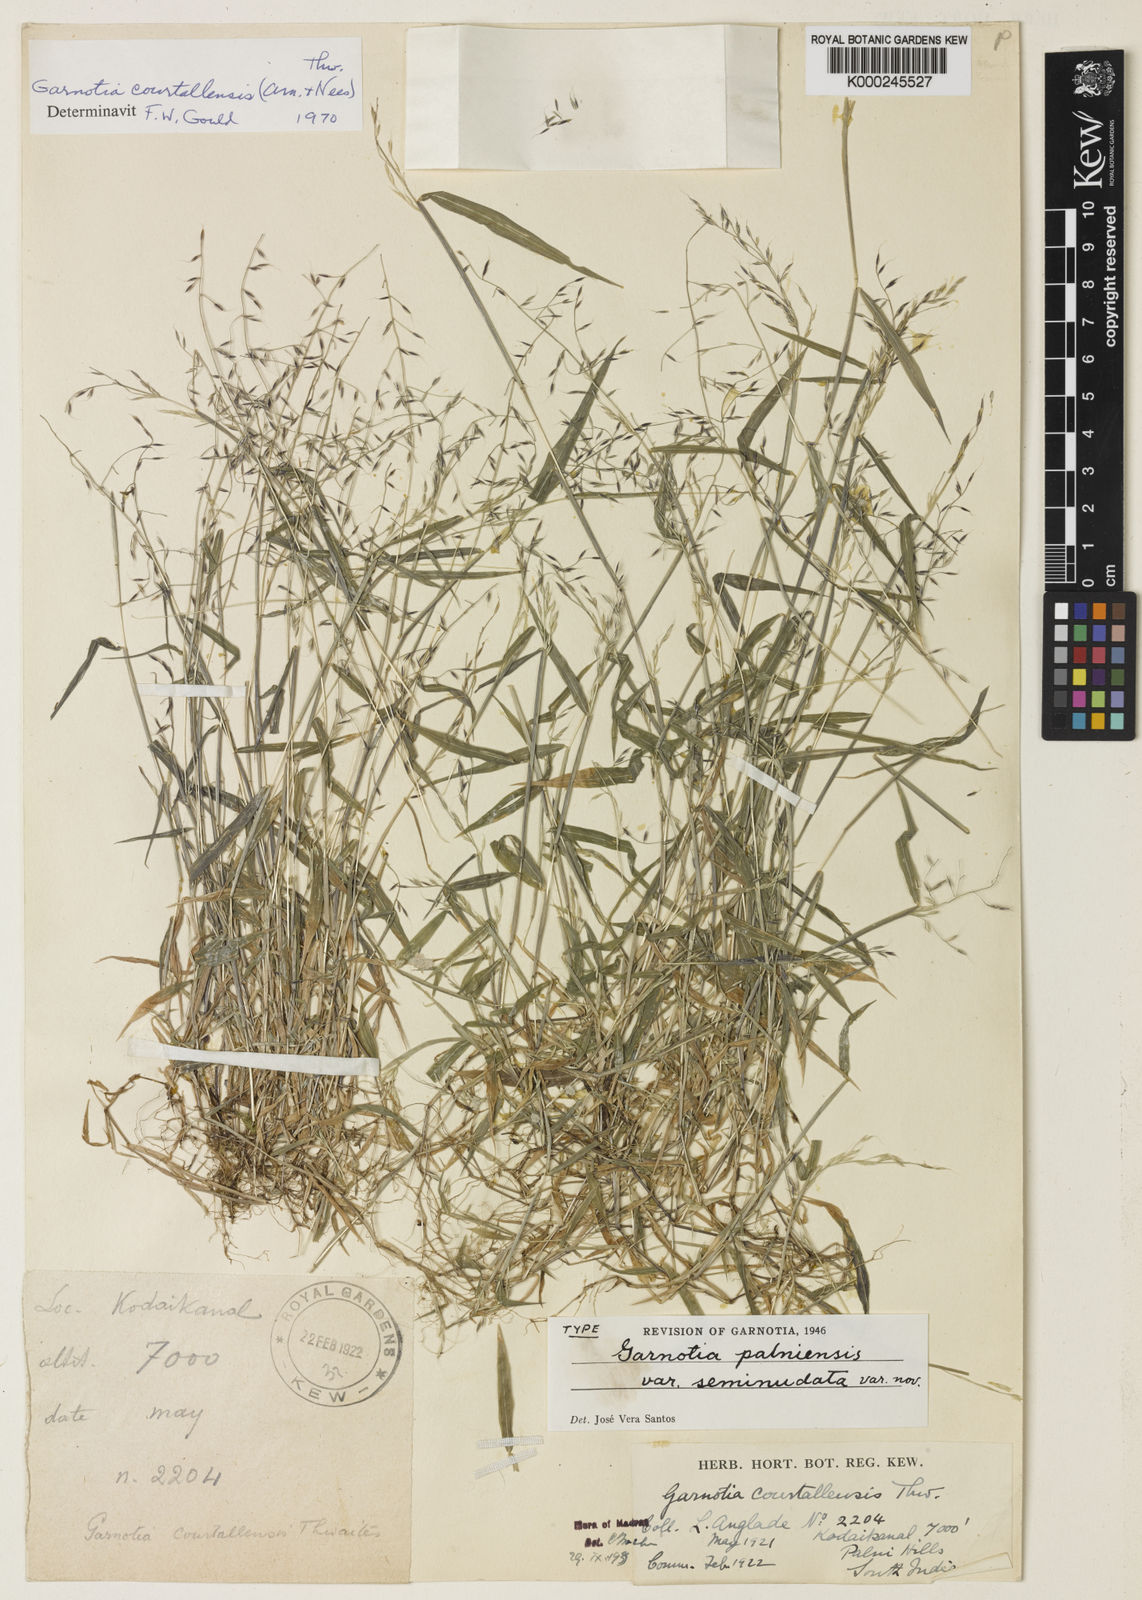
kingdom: Plantae
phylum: Tracheophyta
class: Liliopsida
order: Poales
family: Poaceae
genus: Garnotia
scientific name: Garnotia courtallensis
